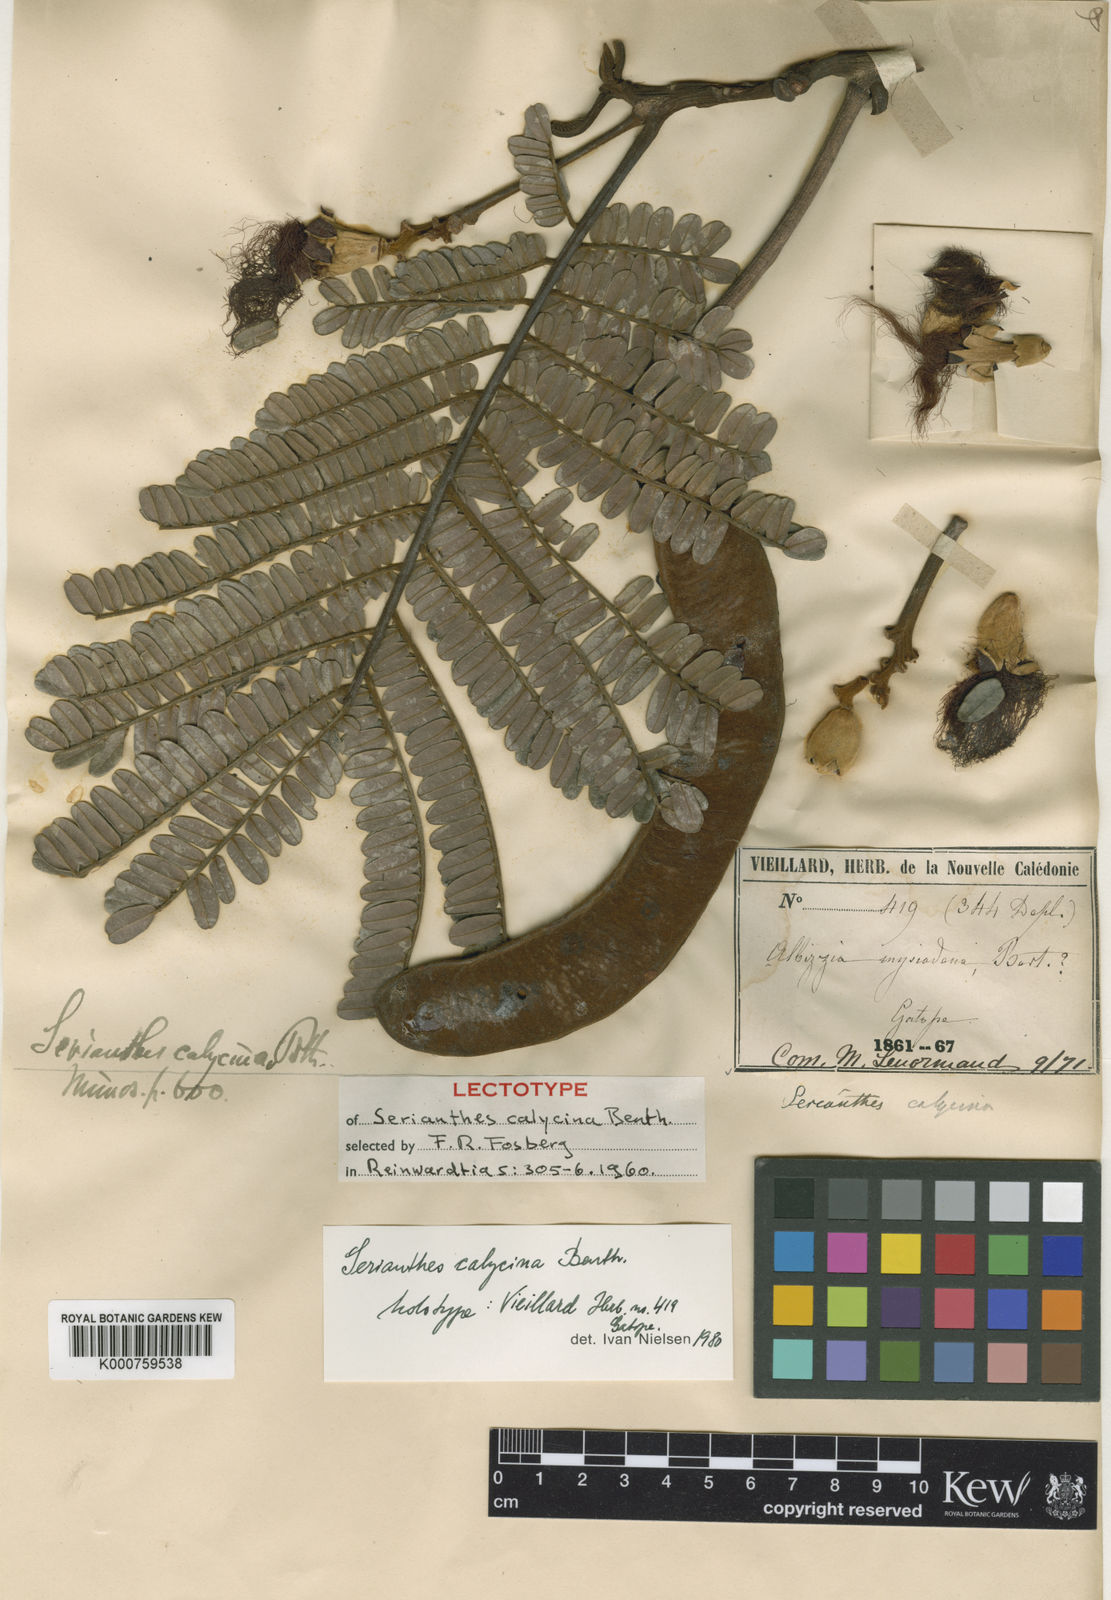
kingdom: Plantae
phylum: Tracheophyta
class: Magnoliopsida
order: Fabales
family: Fabaceae
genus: Serianthes
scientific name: Serianthes calycina
